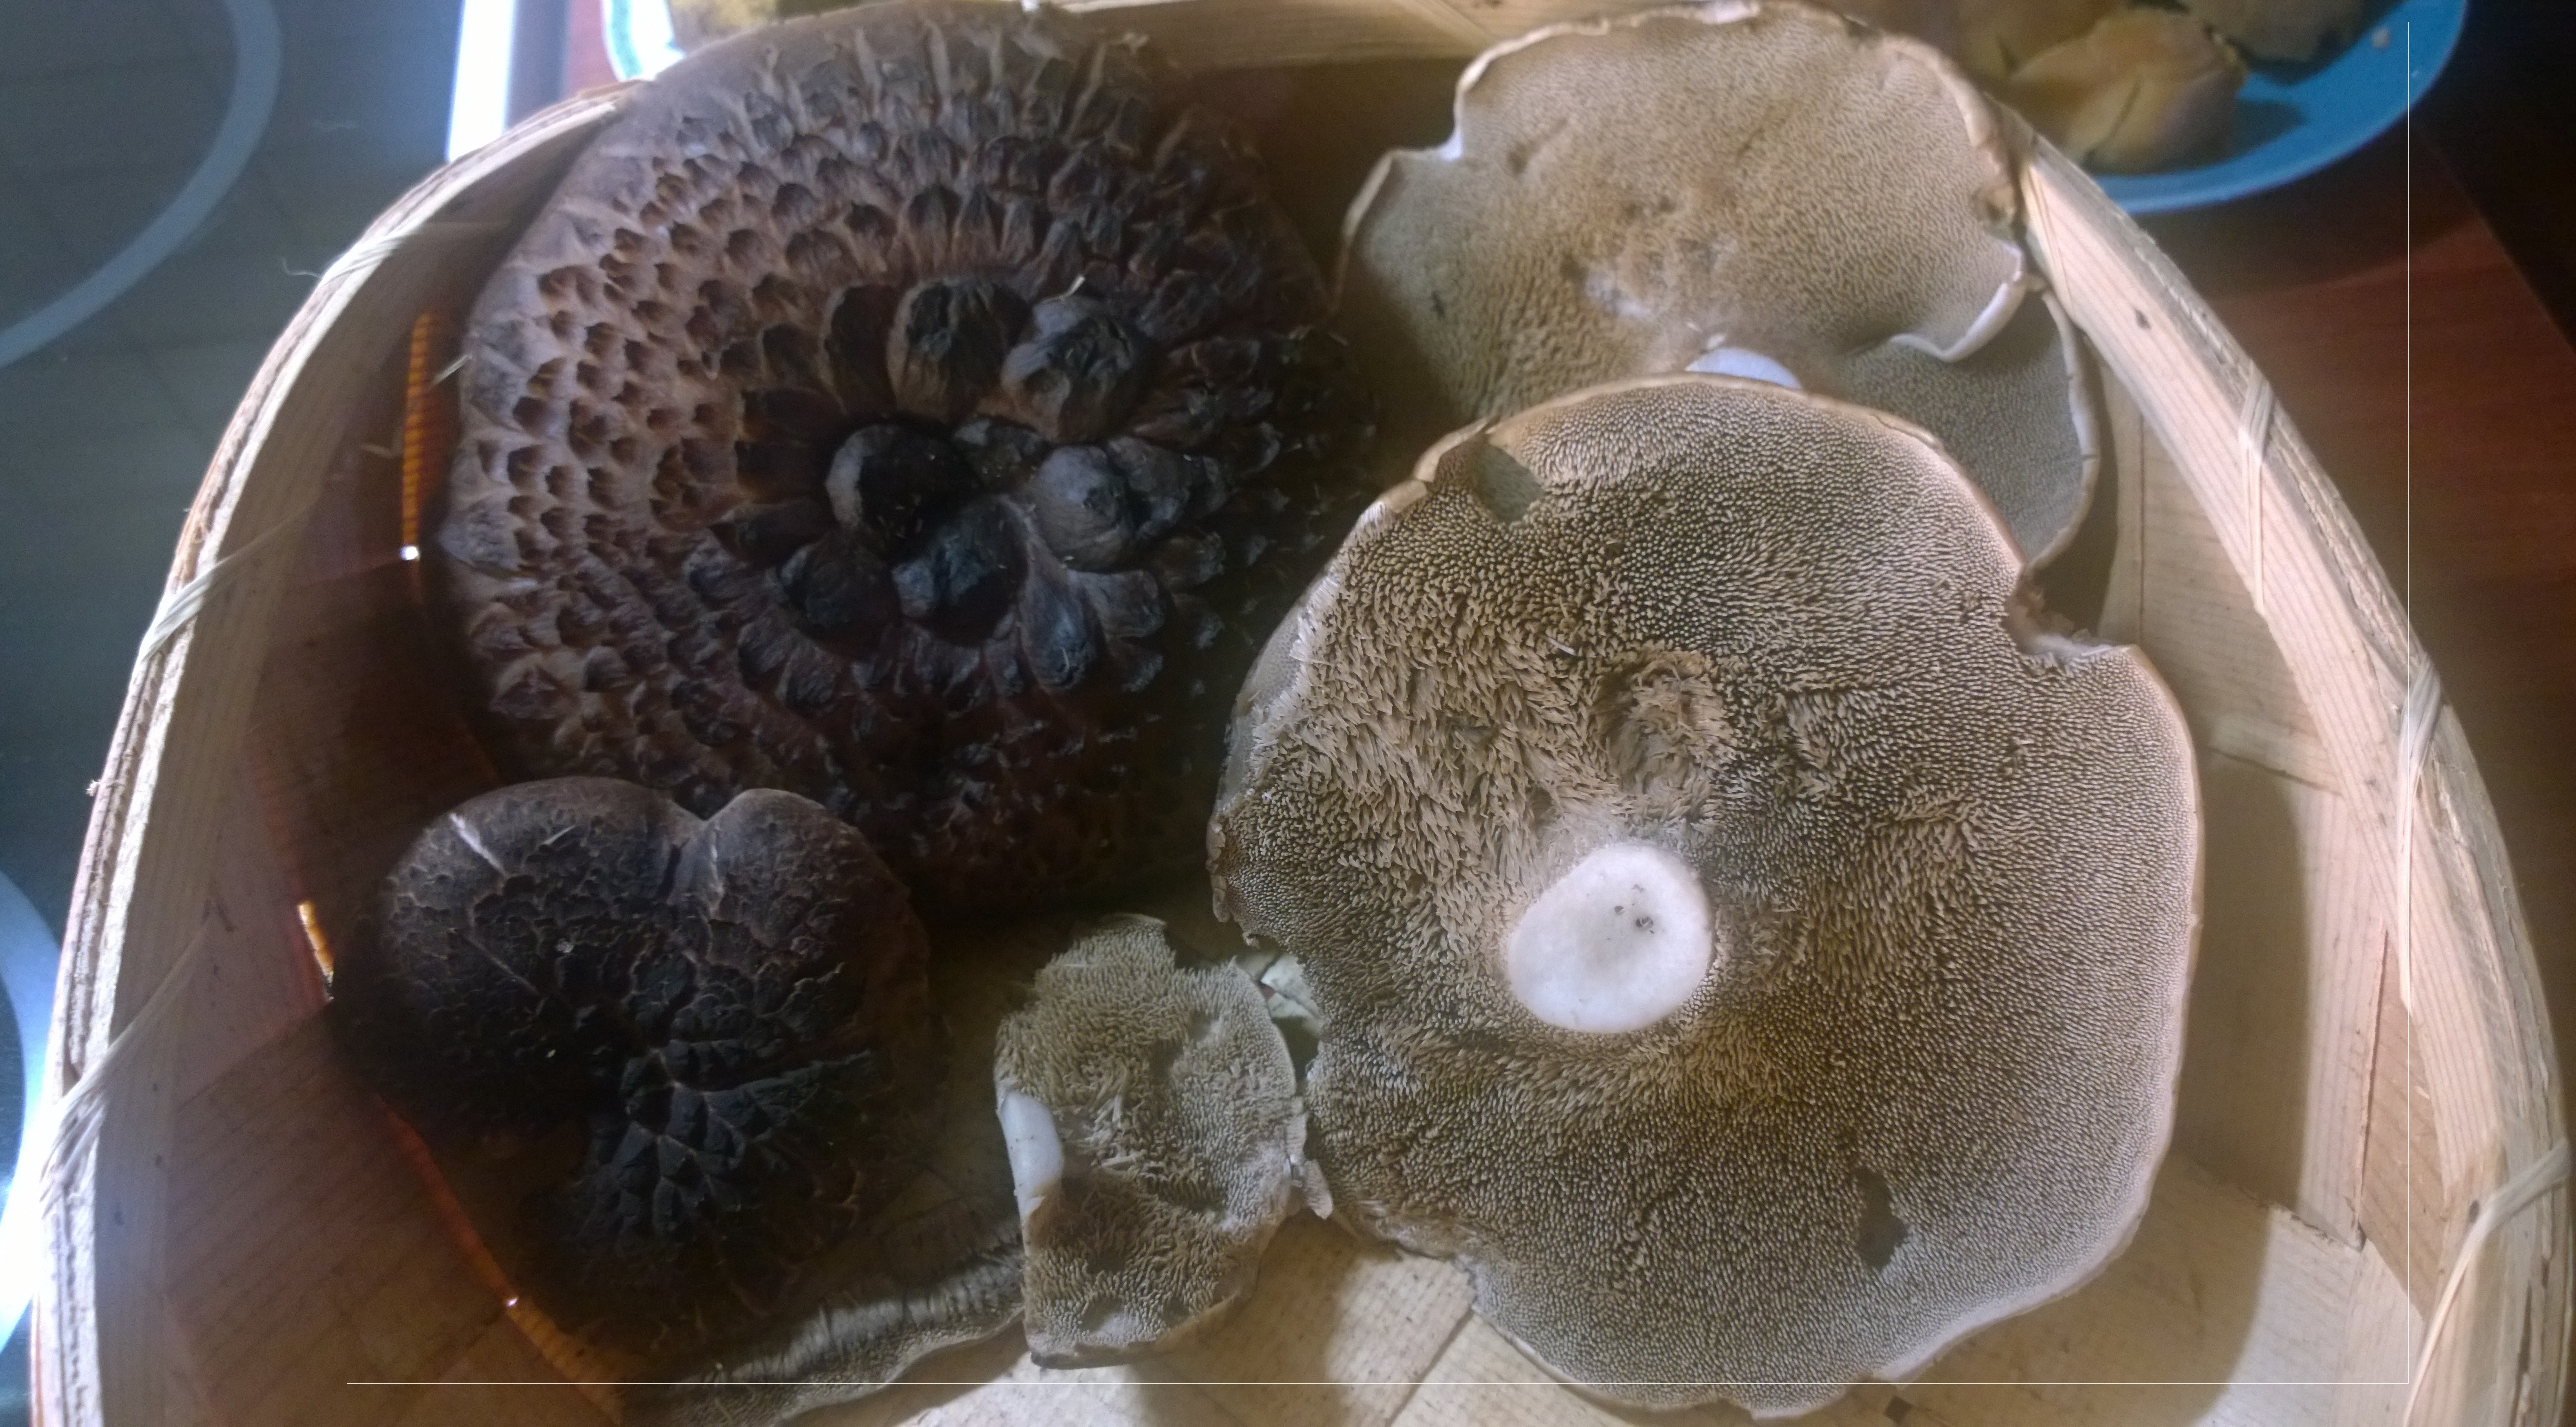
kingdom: Fungi
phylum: Basidiomycota
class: Agaricomycetes
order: Thelephorales
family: Bankeraceae
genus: Sarcodon
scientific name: Sarcodon squamosus
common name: Scaly tooth
